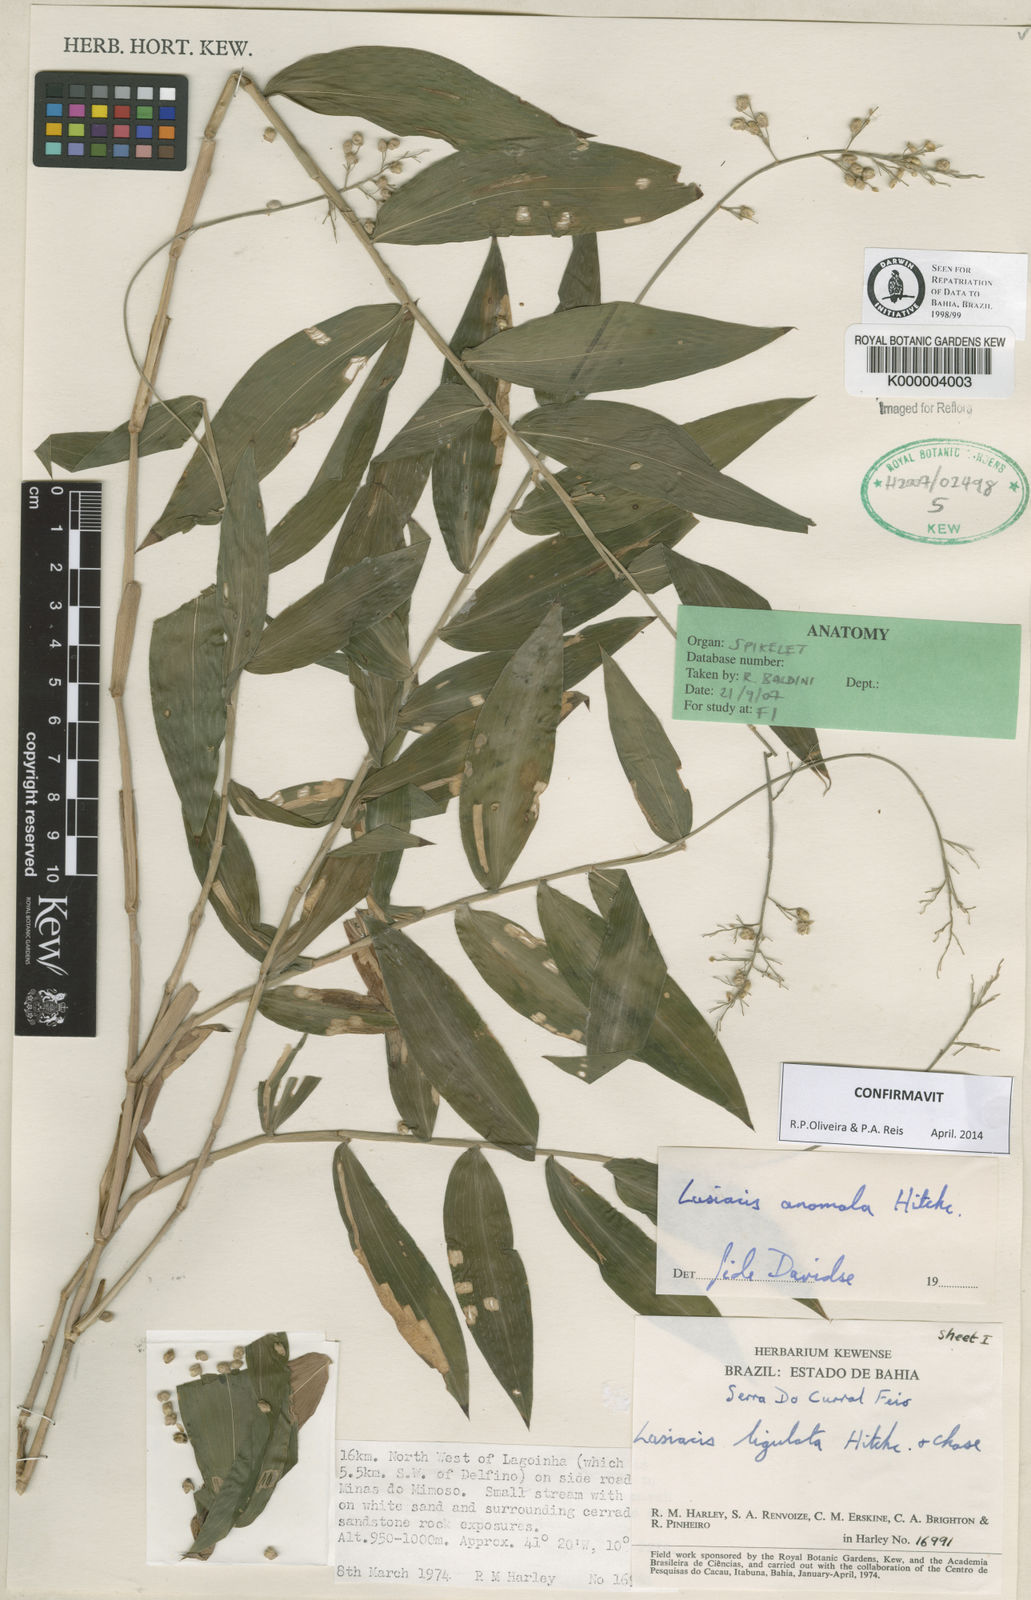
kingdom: Plantae
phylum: Tracheophyta
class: Liliopsida
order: Poales
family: Poaceae
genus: Lasiacis
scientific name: Lasiacis anomala
